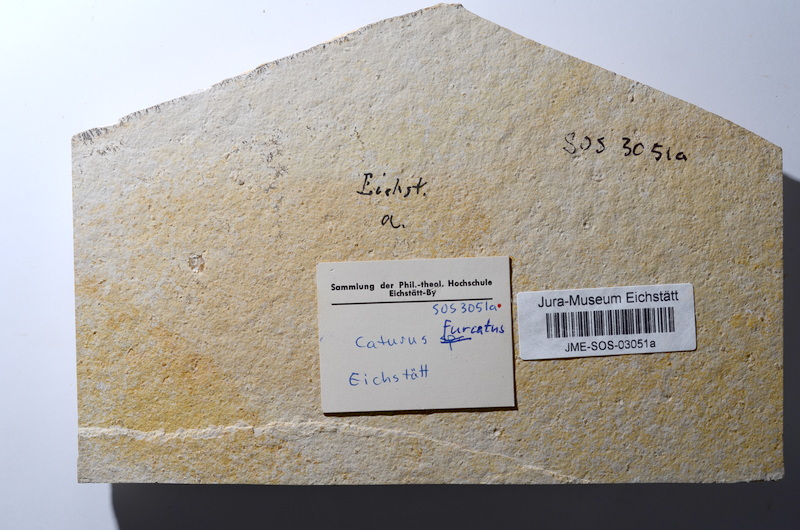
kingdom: Animalia
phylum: Chordata
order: Amiiformes
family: Caturidae
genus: Caturus
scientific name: Caturus furcatus
